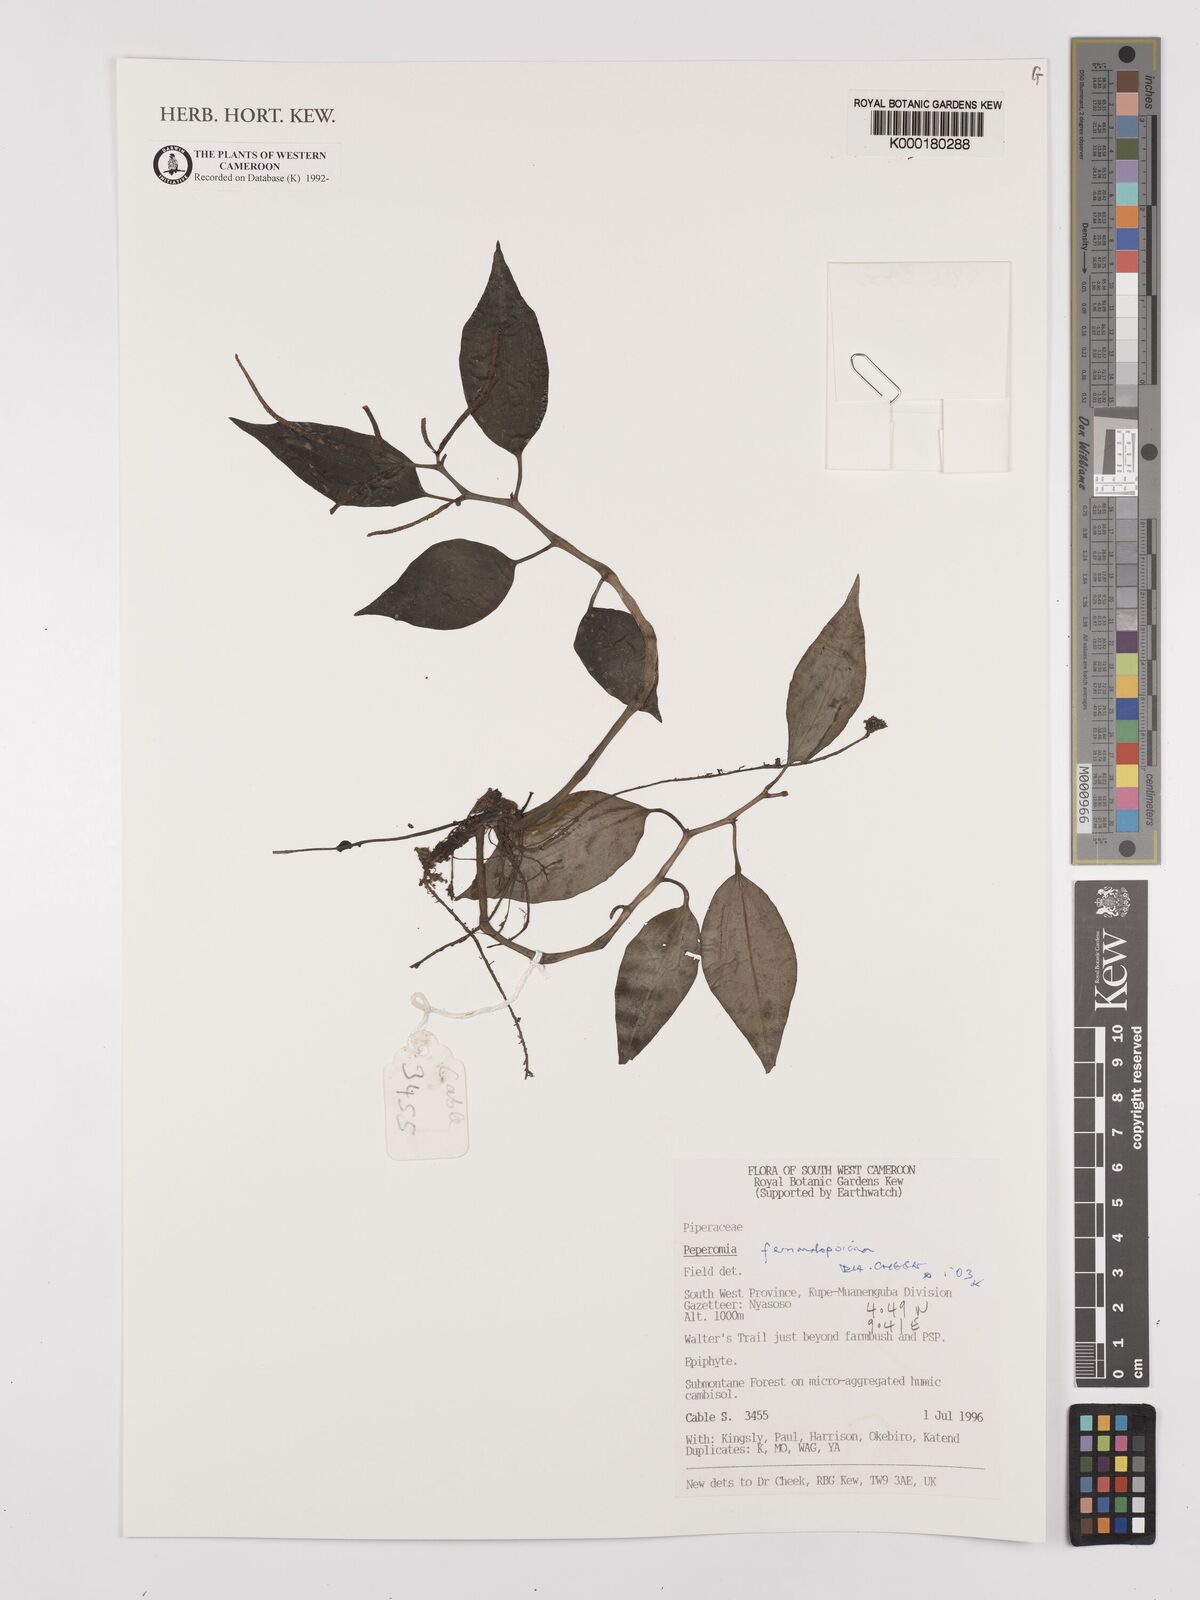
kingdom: Plantae
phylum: Tracheophyta
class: Magnoliopsida
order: Piperales
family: Piperaceae
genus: Peperomia
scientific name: Peperomia fernandopoiana
